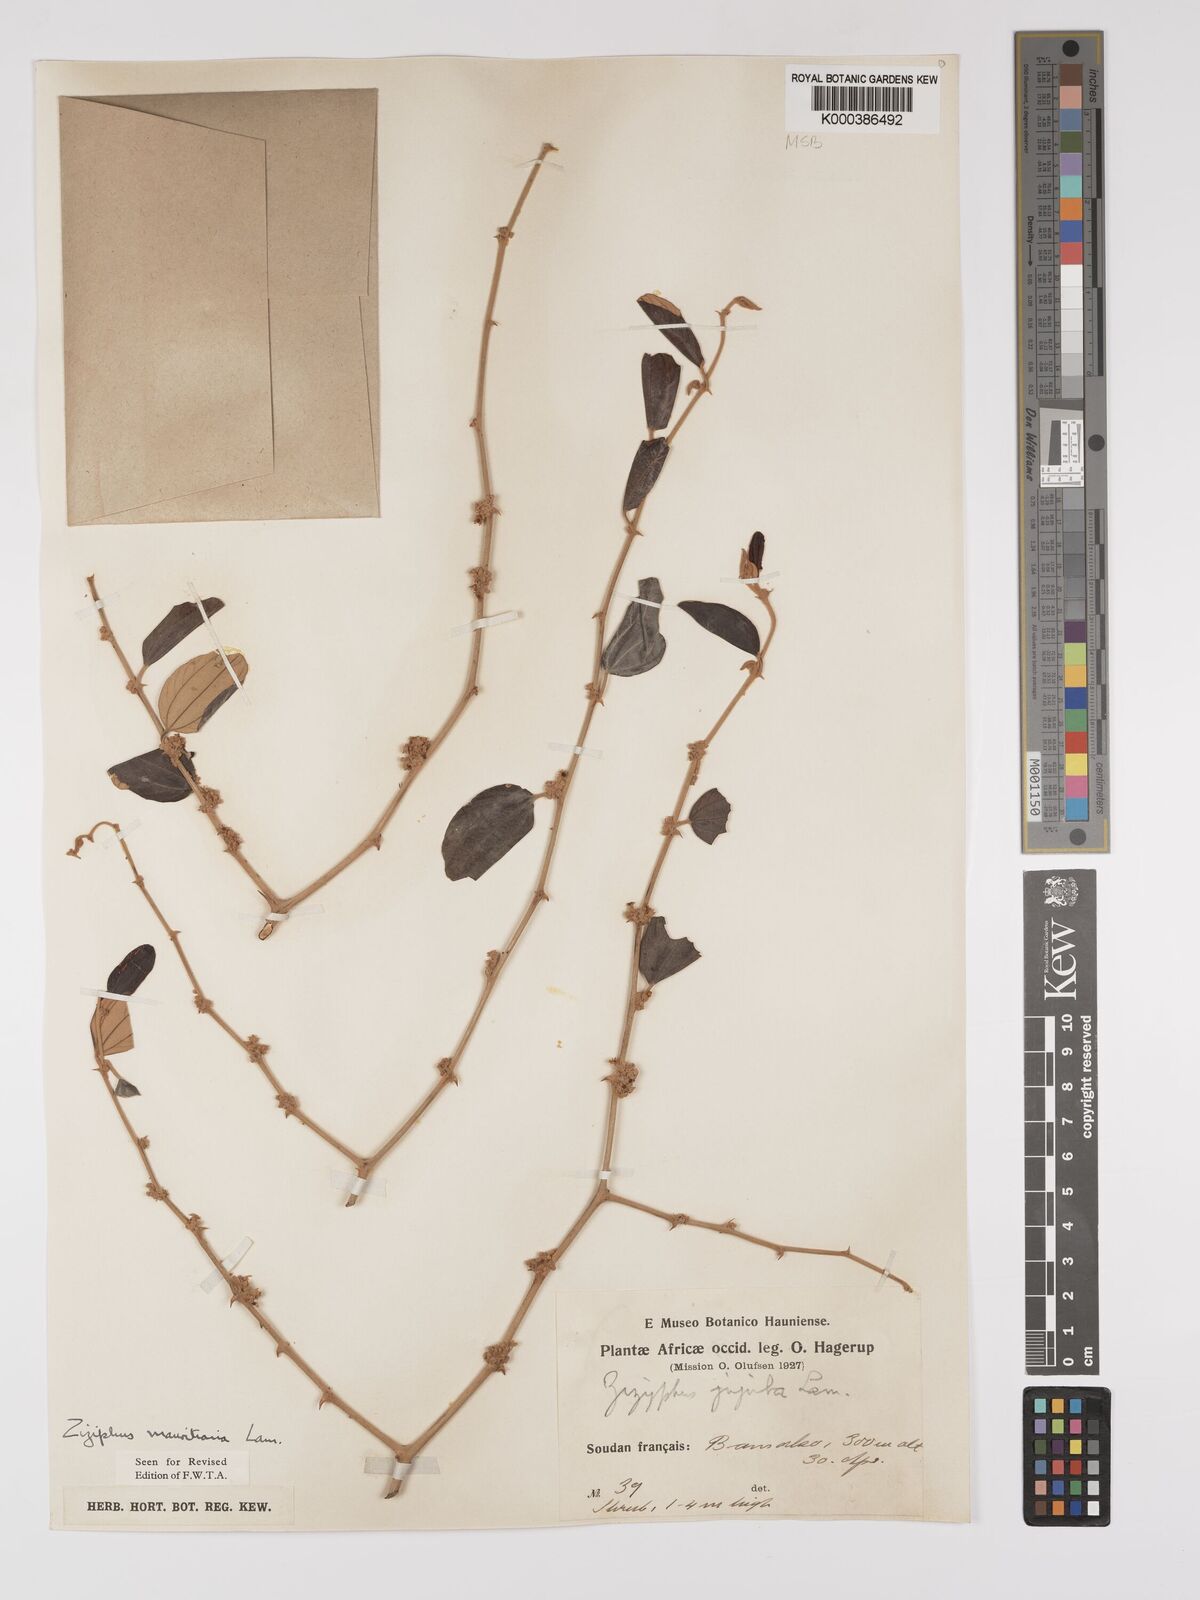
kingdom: Plantae
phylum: Tracheophyta
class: Magnoliopsida
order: Rosales
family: Rhamnaceae
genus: Ziziphus
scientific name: Ziziphus mauritiana
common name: Indian jujube
